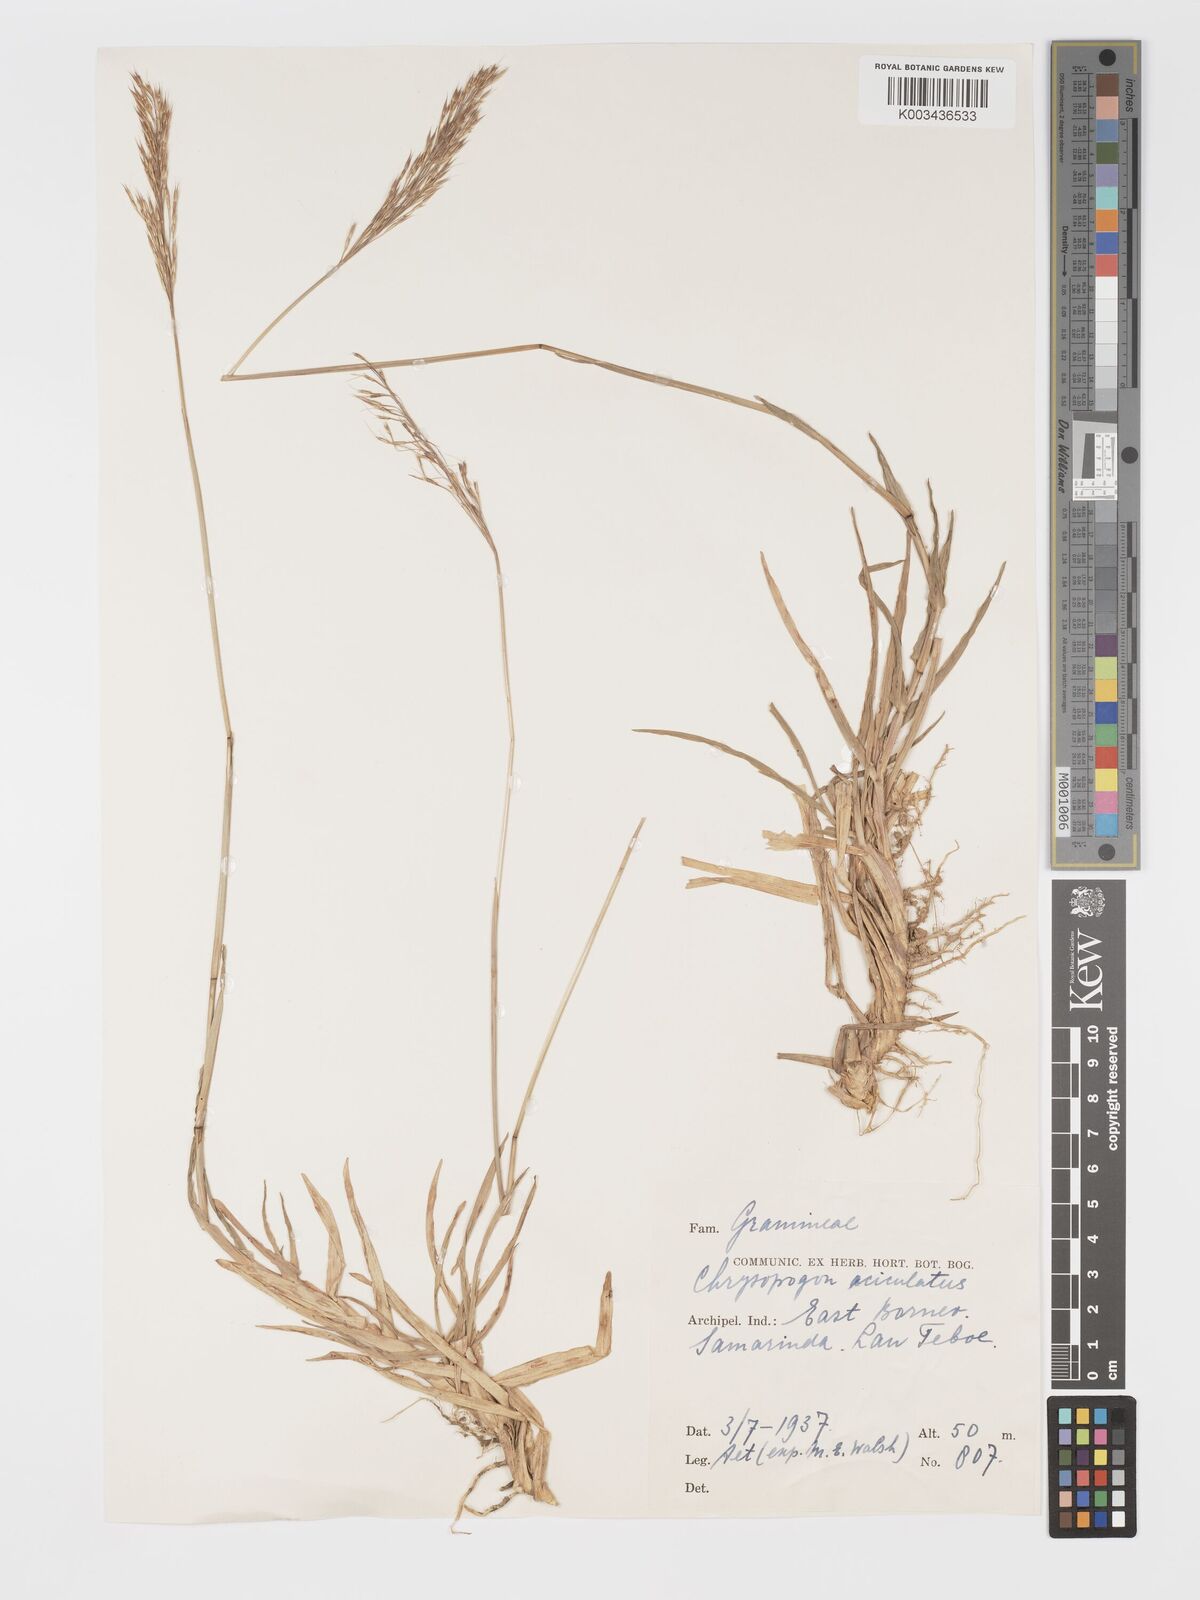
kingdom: Plantae
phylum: Tracheophyta
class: Liliopsida
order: Poales
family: Poaceae
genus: Chrysopogon
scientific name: Chrysopogon aciculatus
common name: Pilipiliula
